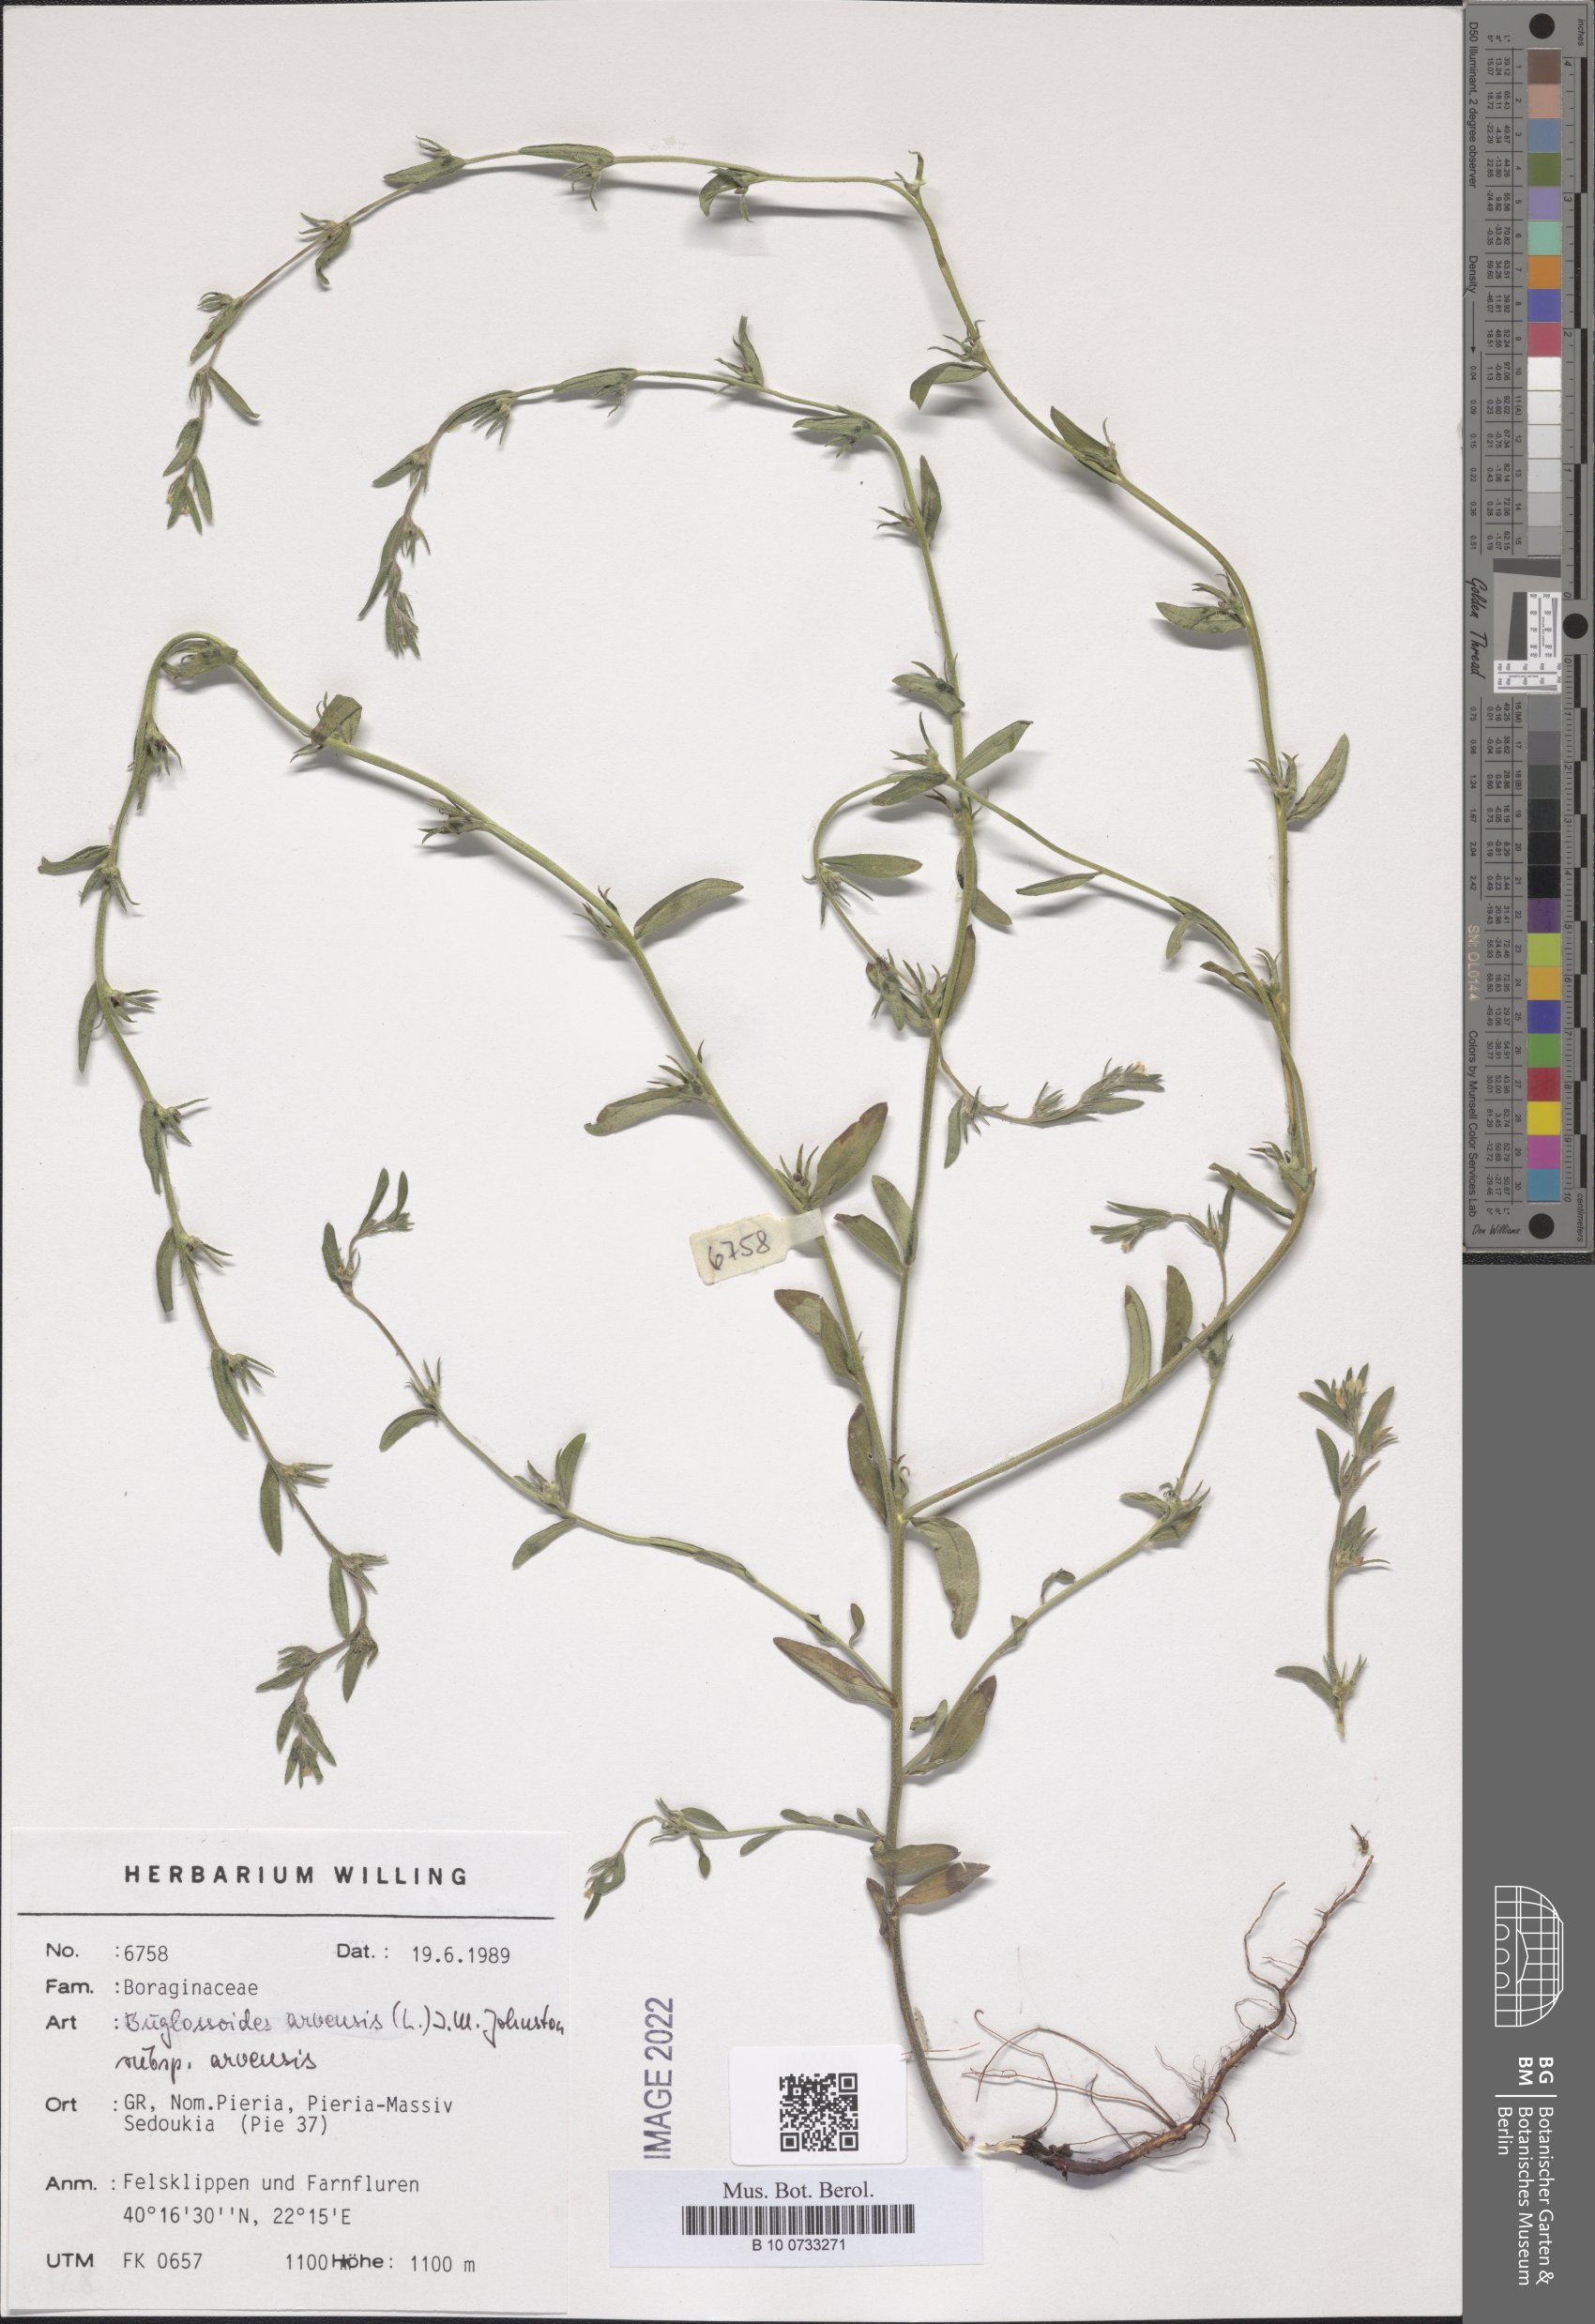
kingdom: Plantae
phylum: Tracheophyta
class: Magnoliopsida
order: Boraginales
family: Boraginaceae
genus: Buglossoides
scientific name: Buglossoides arvensis
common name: Corn gromwell
